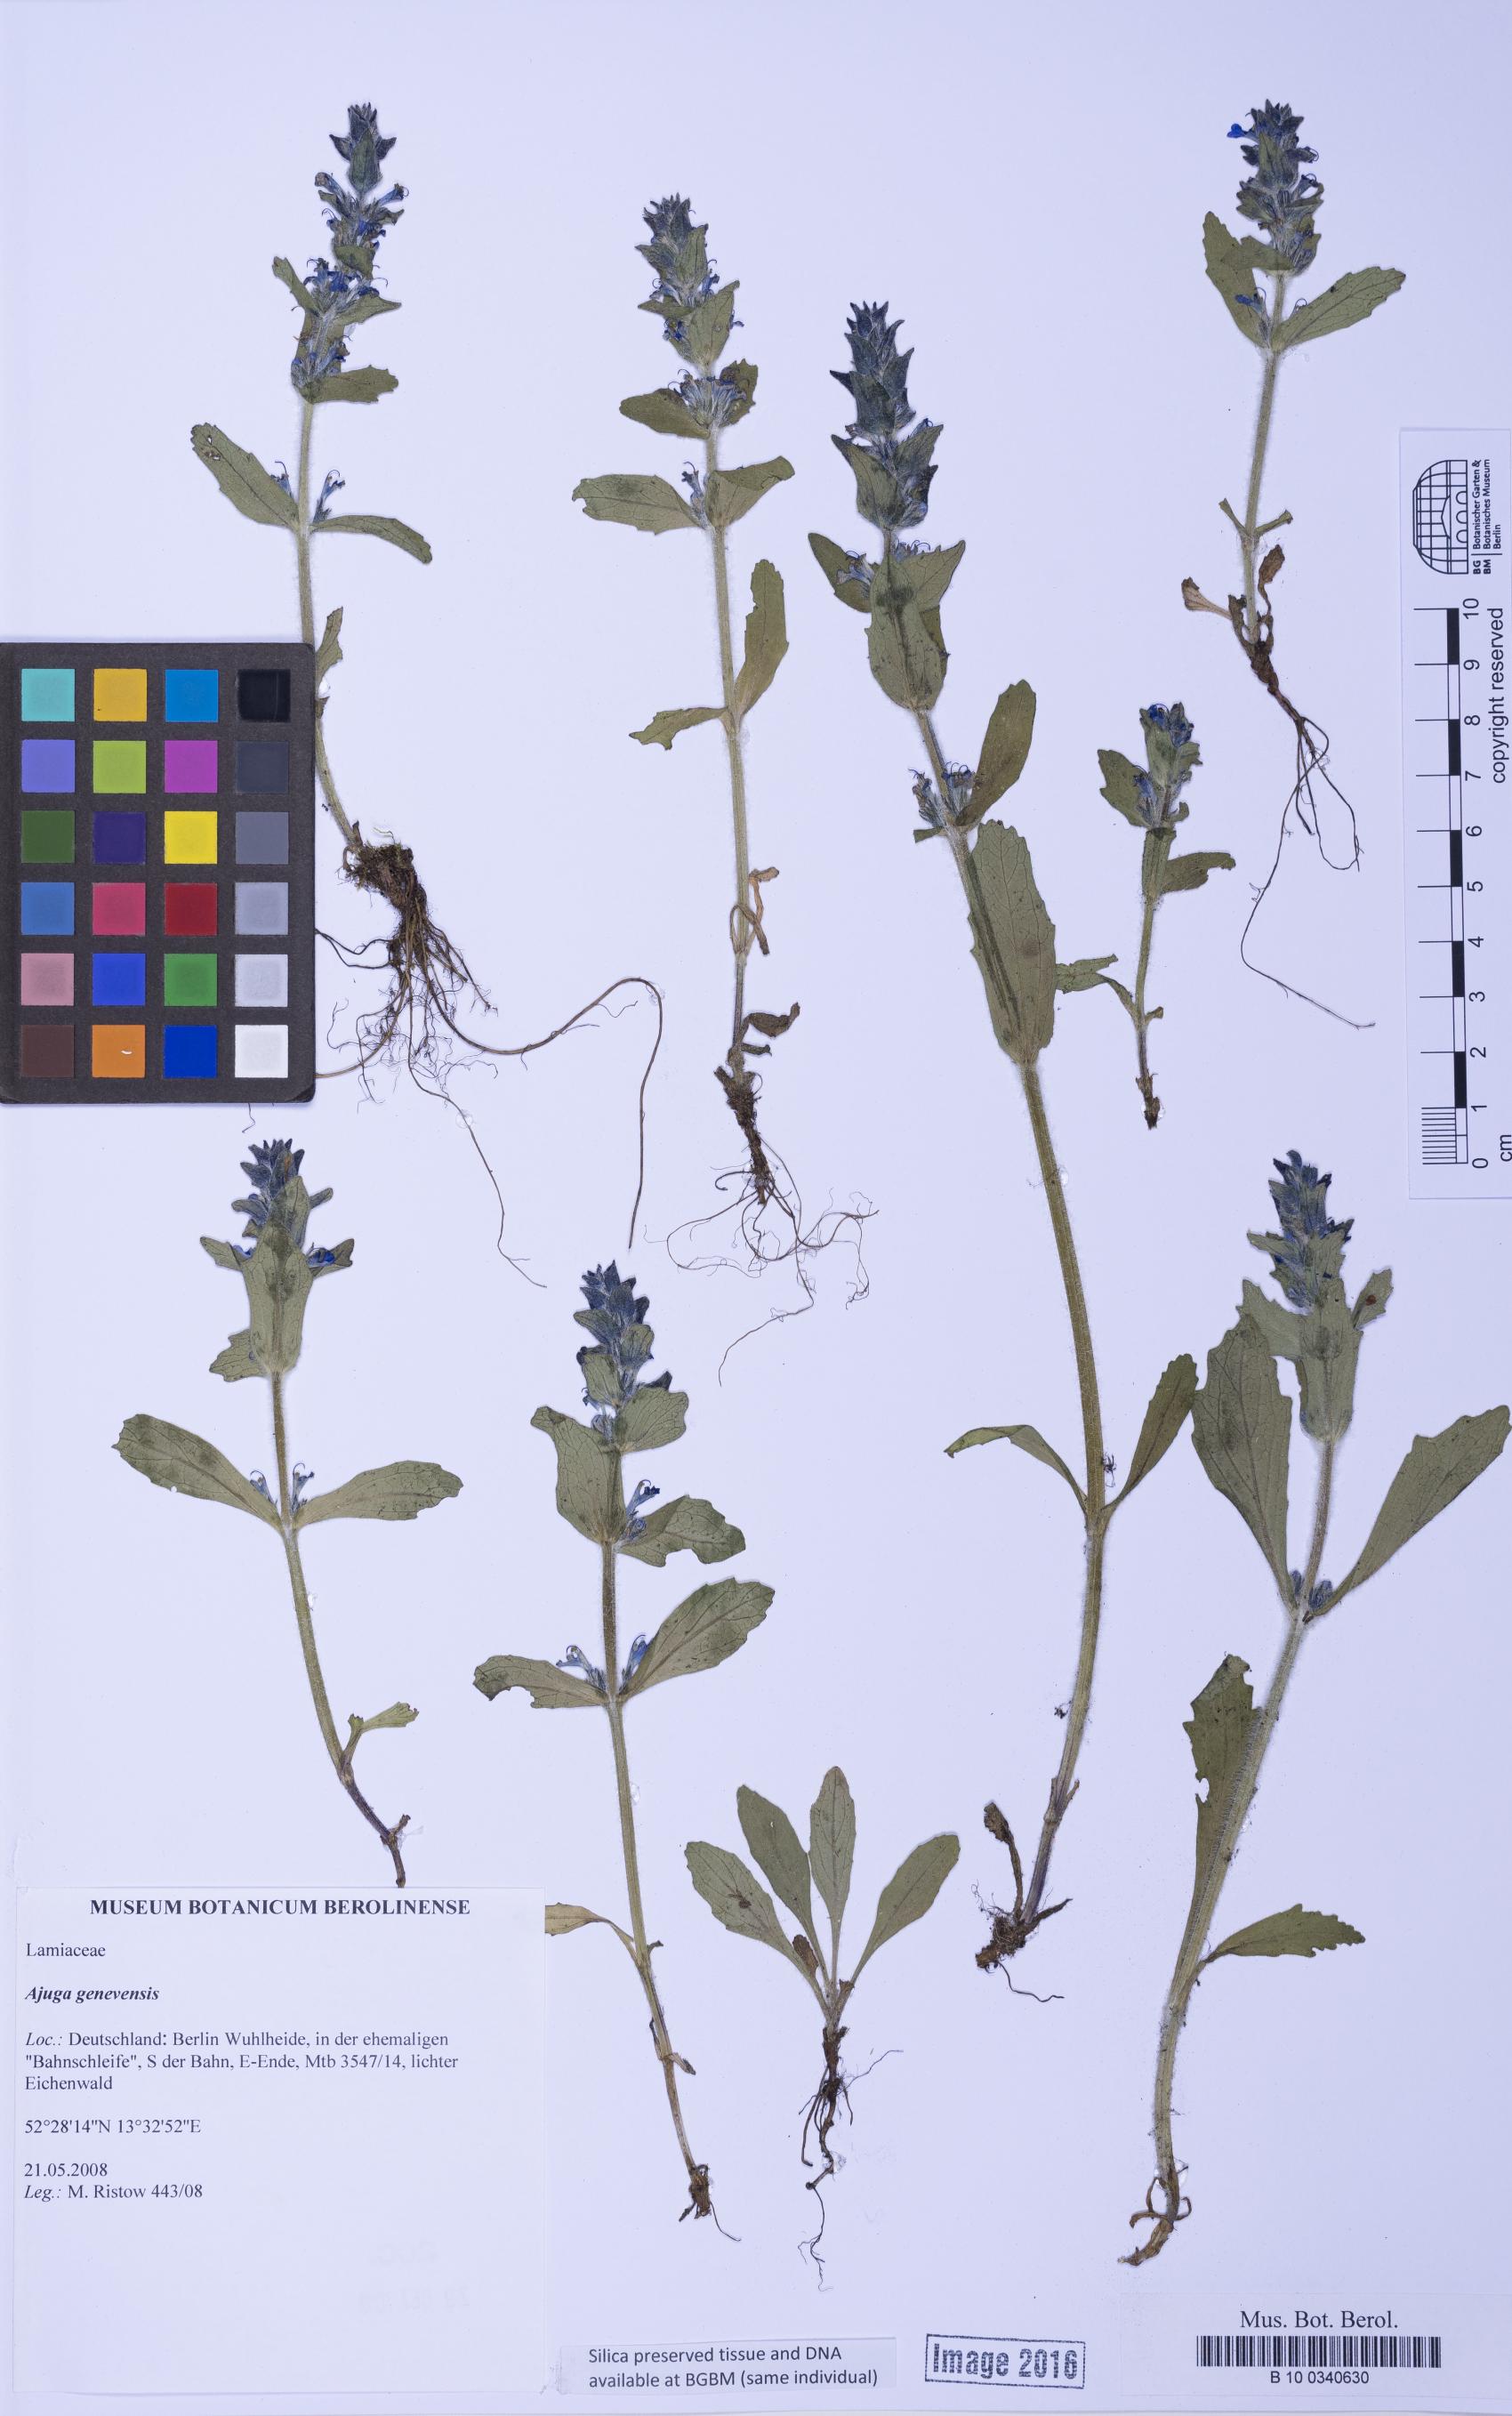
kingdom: Plantae
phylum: Tracheophyta
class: Magnoliopsida
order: Lamiales
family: Lamiaceae
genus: Ajuga
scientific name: Ajuga genevensis
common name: Blue bugle
